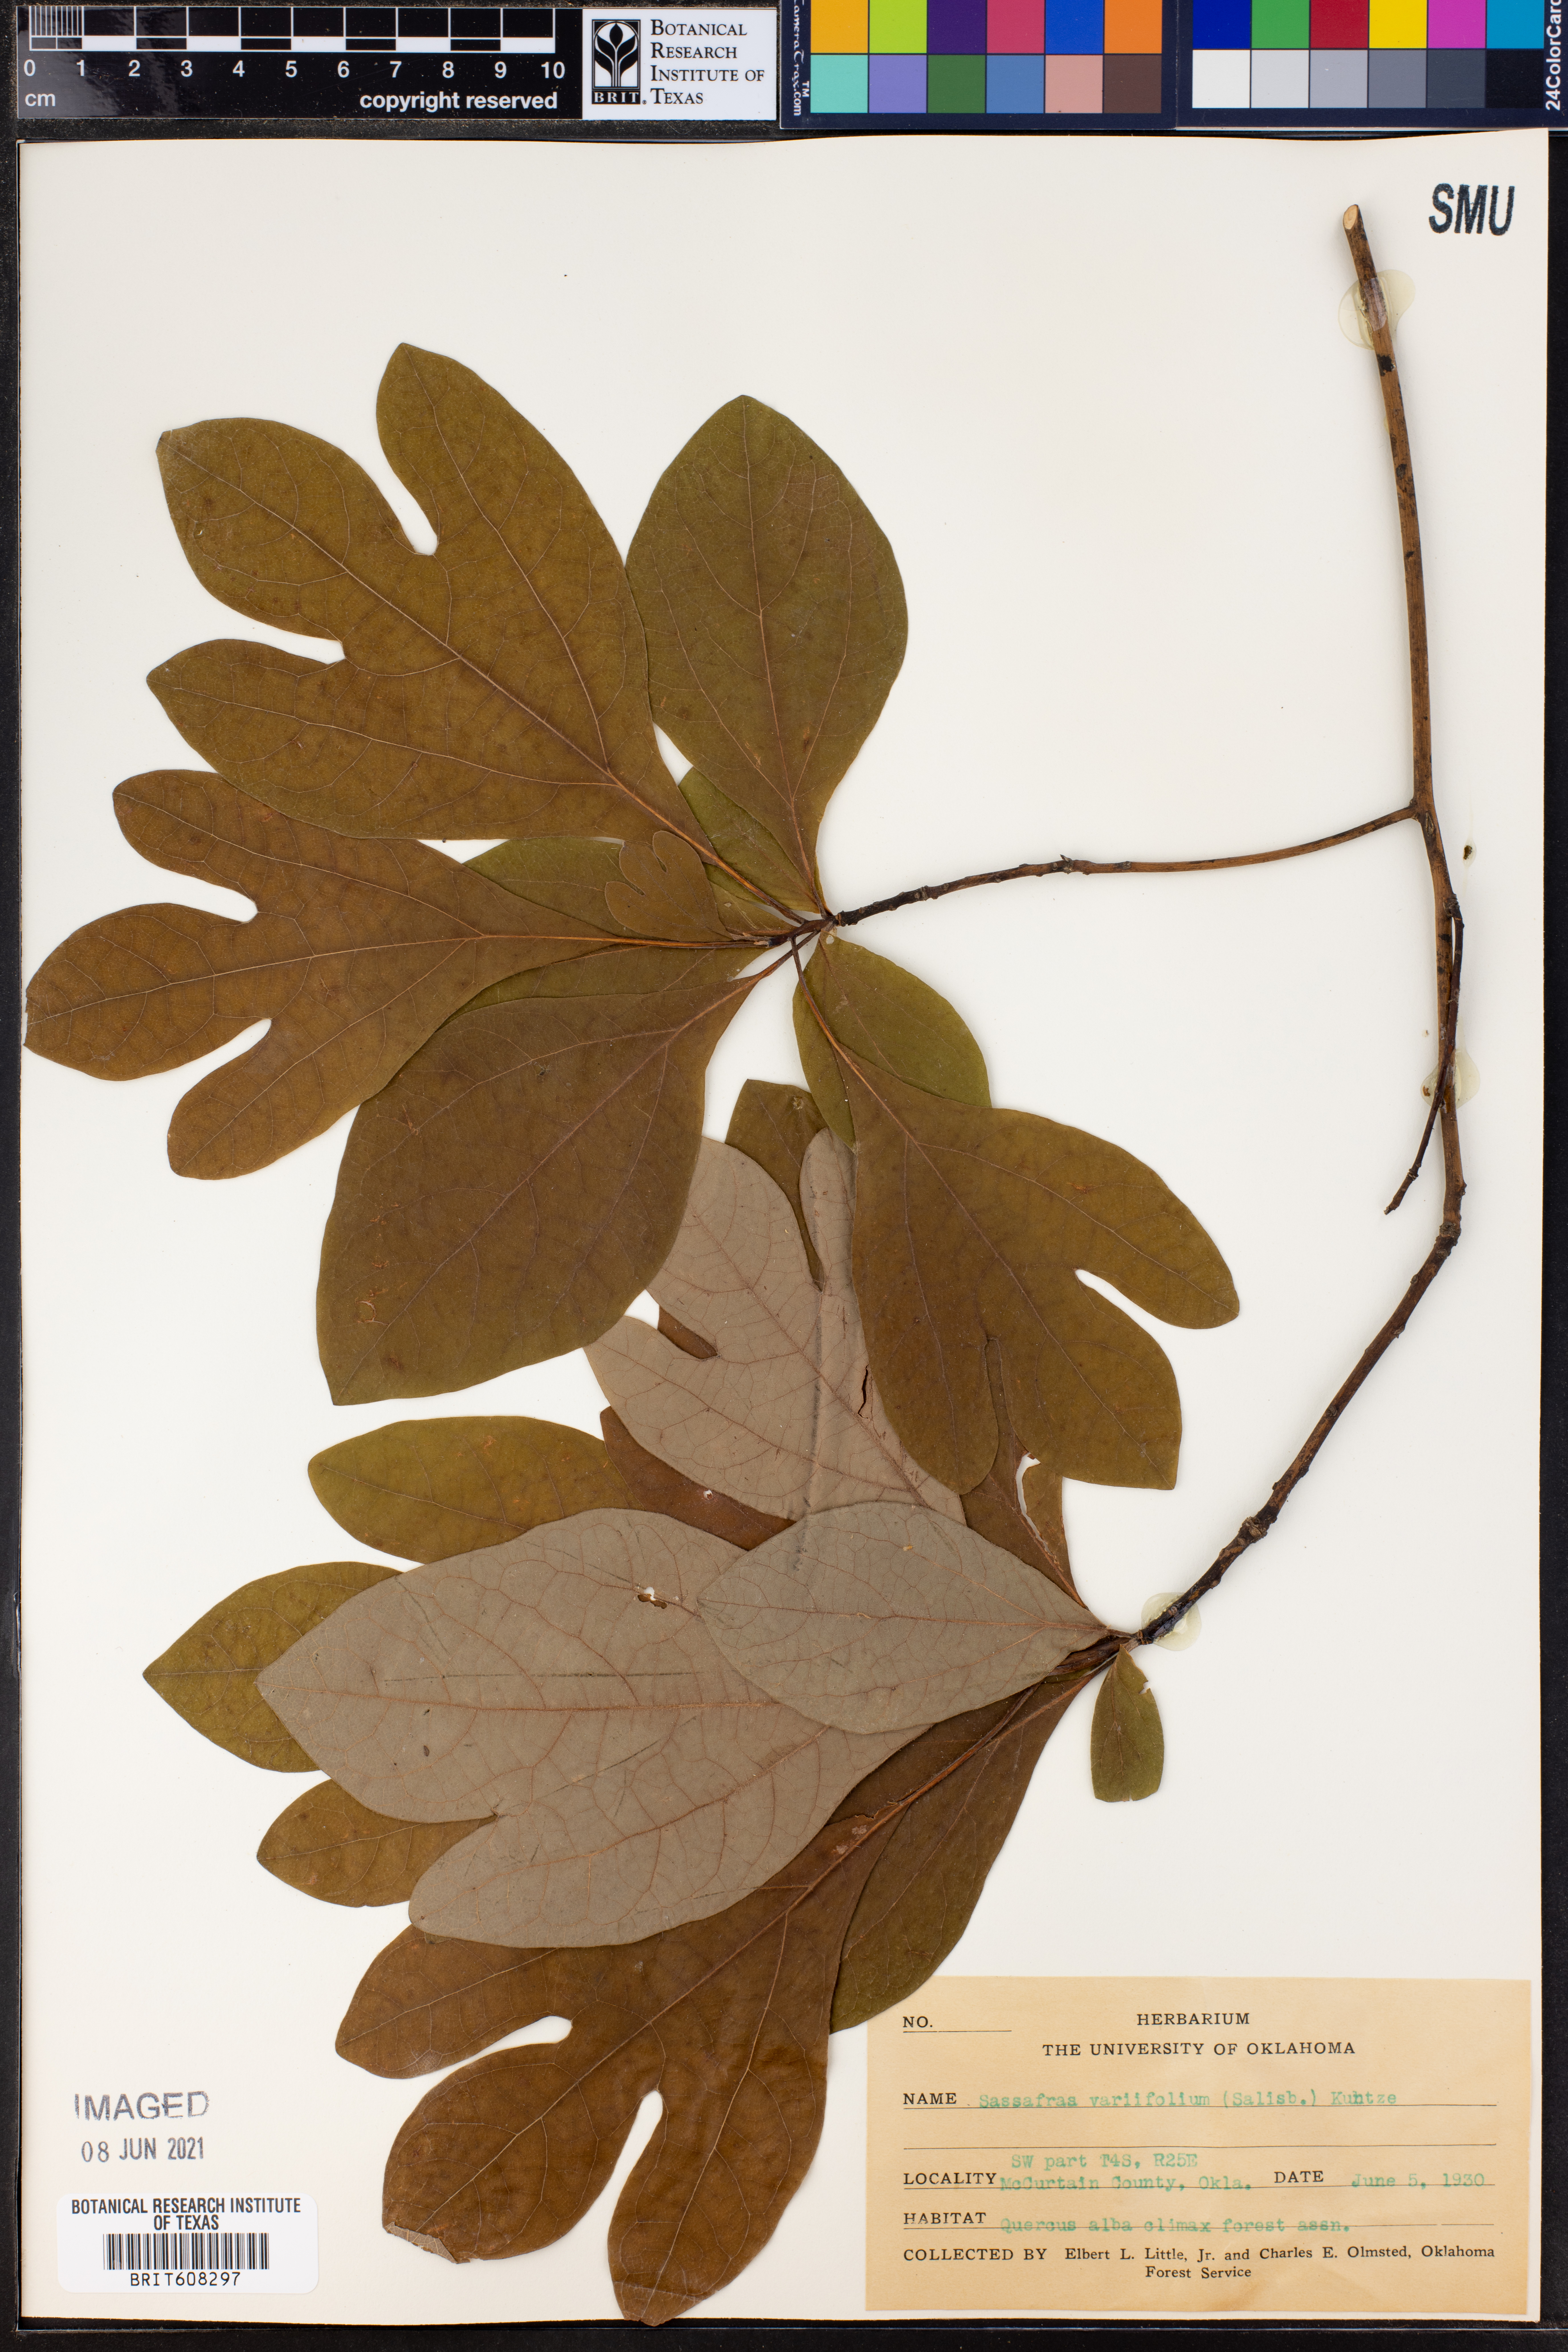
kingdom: Plantae
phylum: Tracheophyta
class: Magnoliopsida
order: Laurales
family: Lauraceae
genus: Sassafras
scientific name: Sassafras albidum
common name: Sassafras
